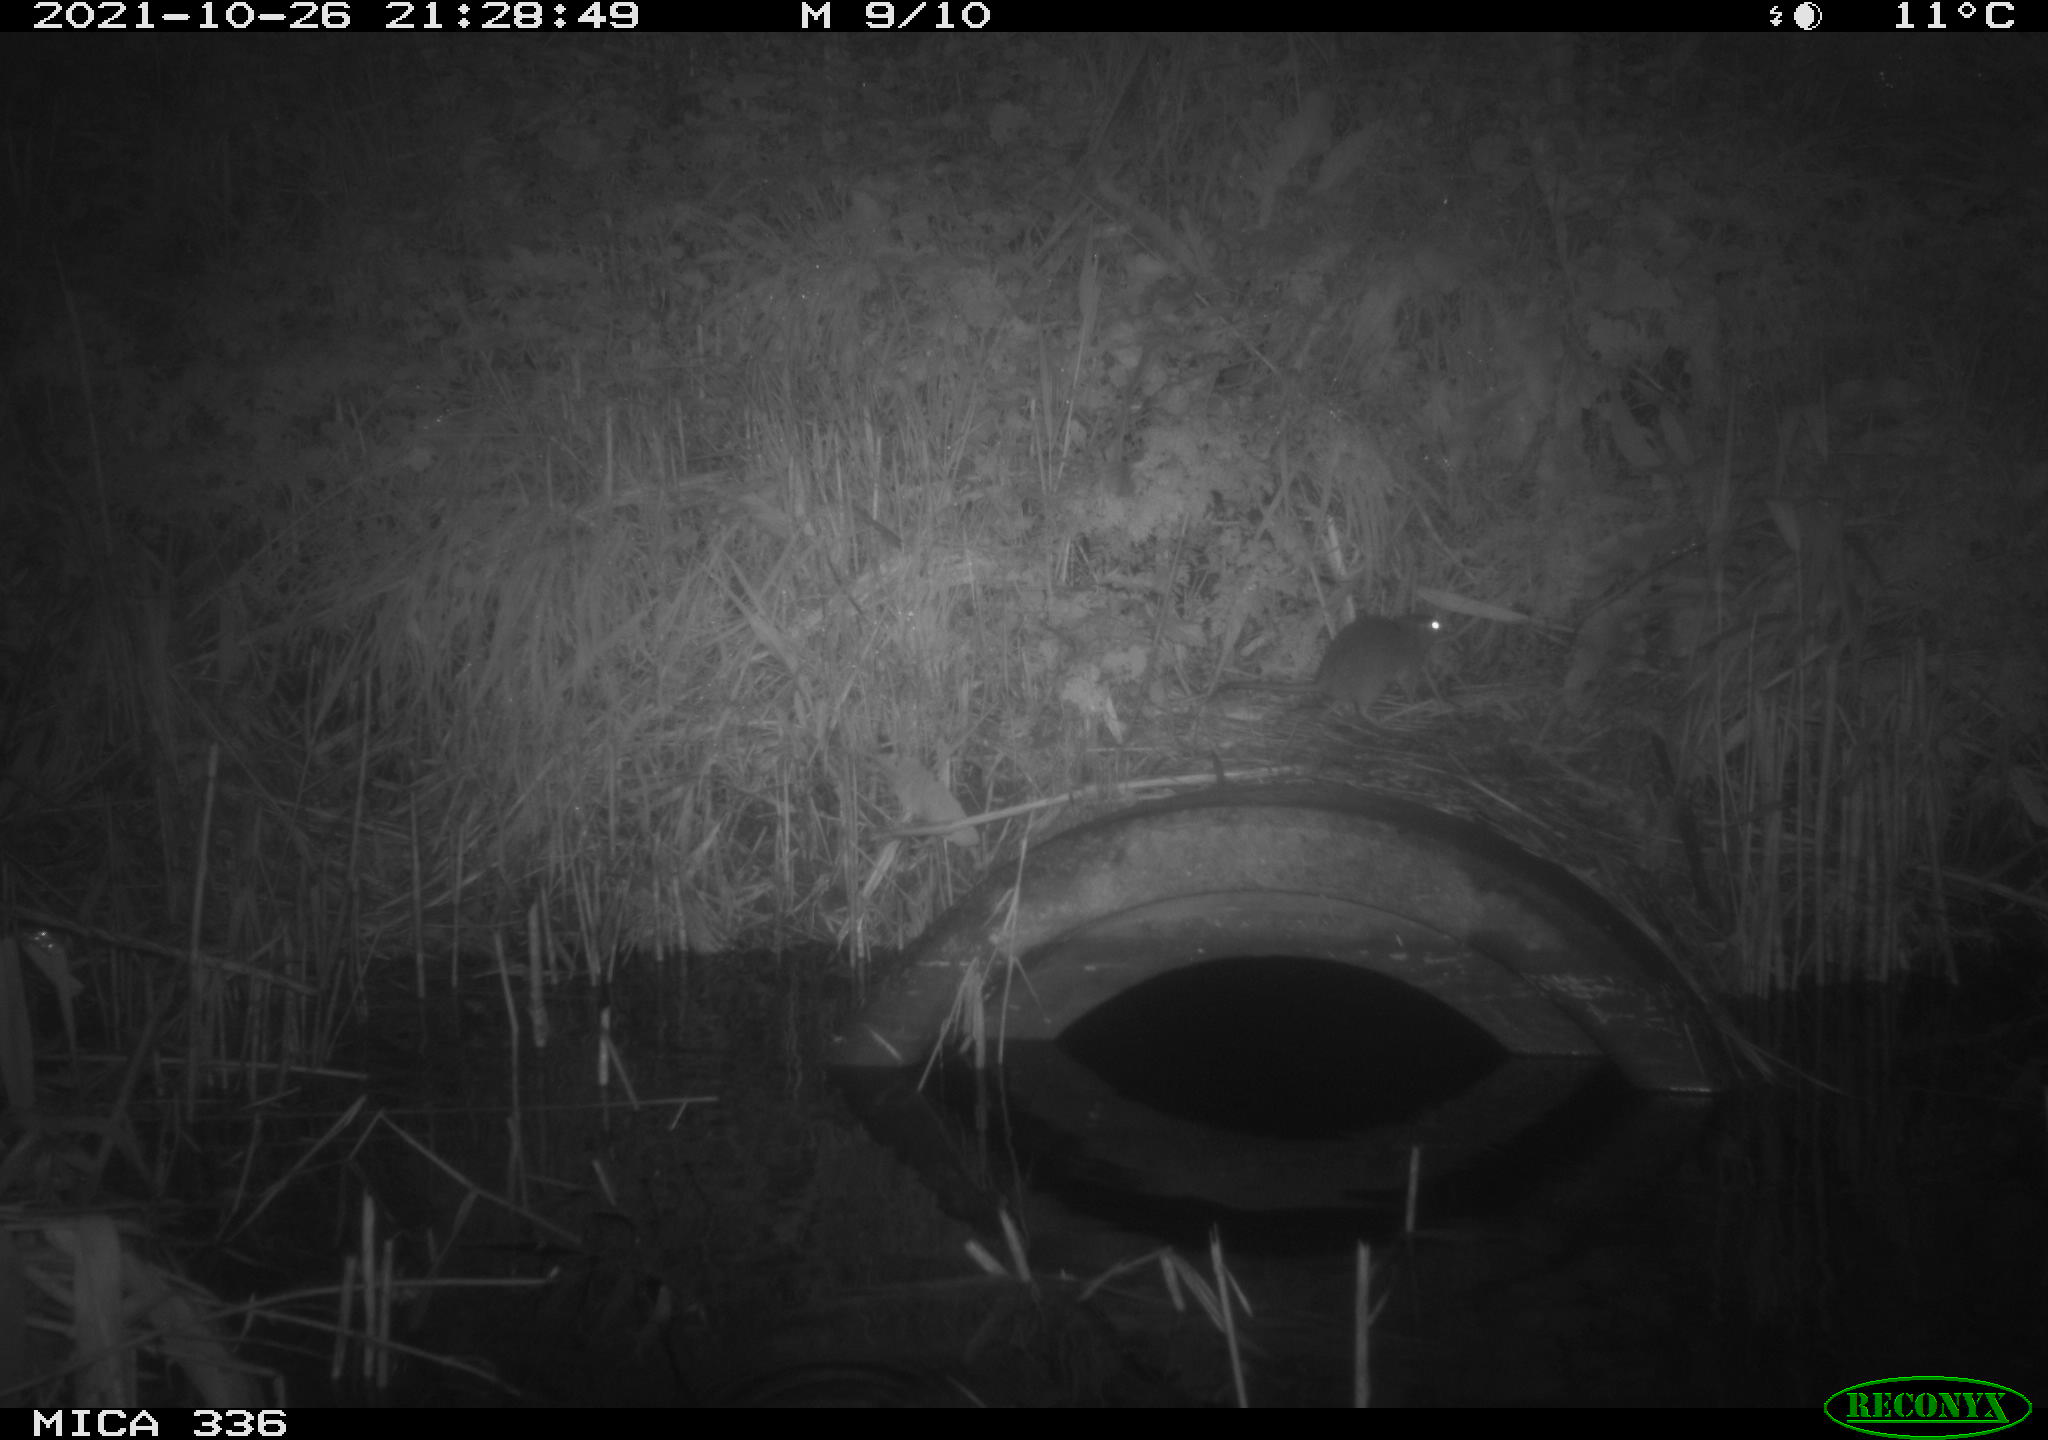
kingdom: Animalia
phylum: Chordata
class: Mammalia
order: Rodentia
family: Muridae
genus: Rattus
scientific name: Rattus norvegicus
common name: Brown rat
